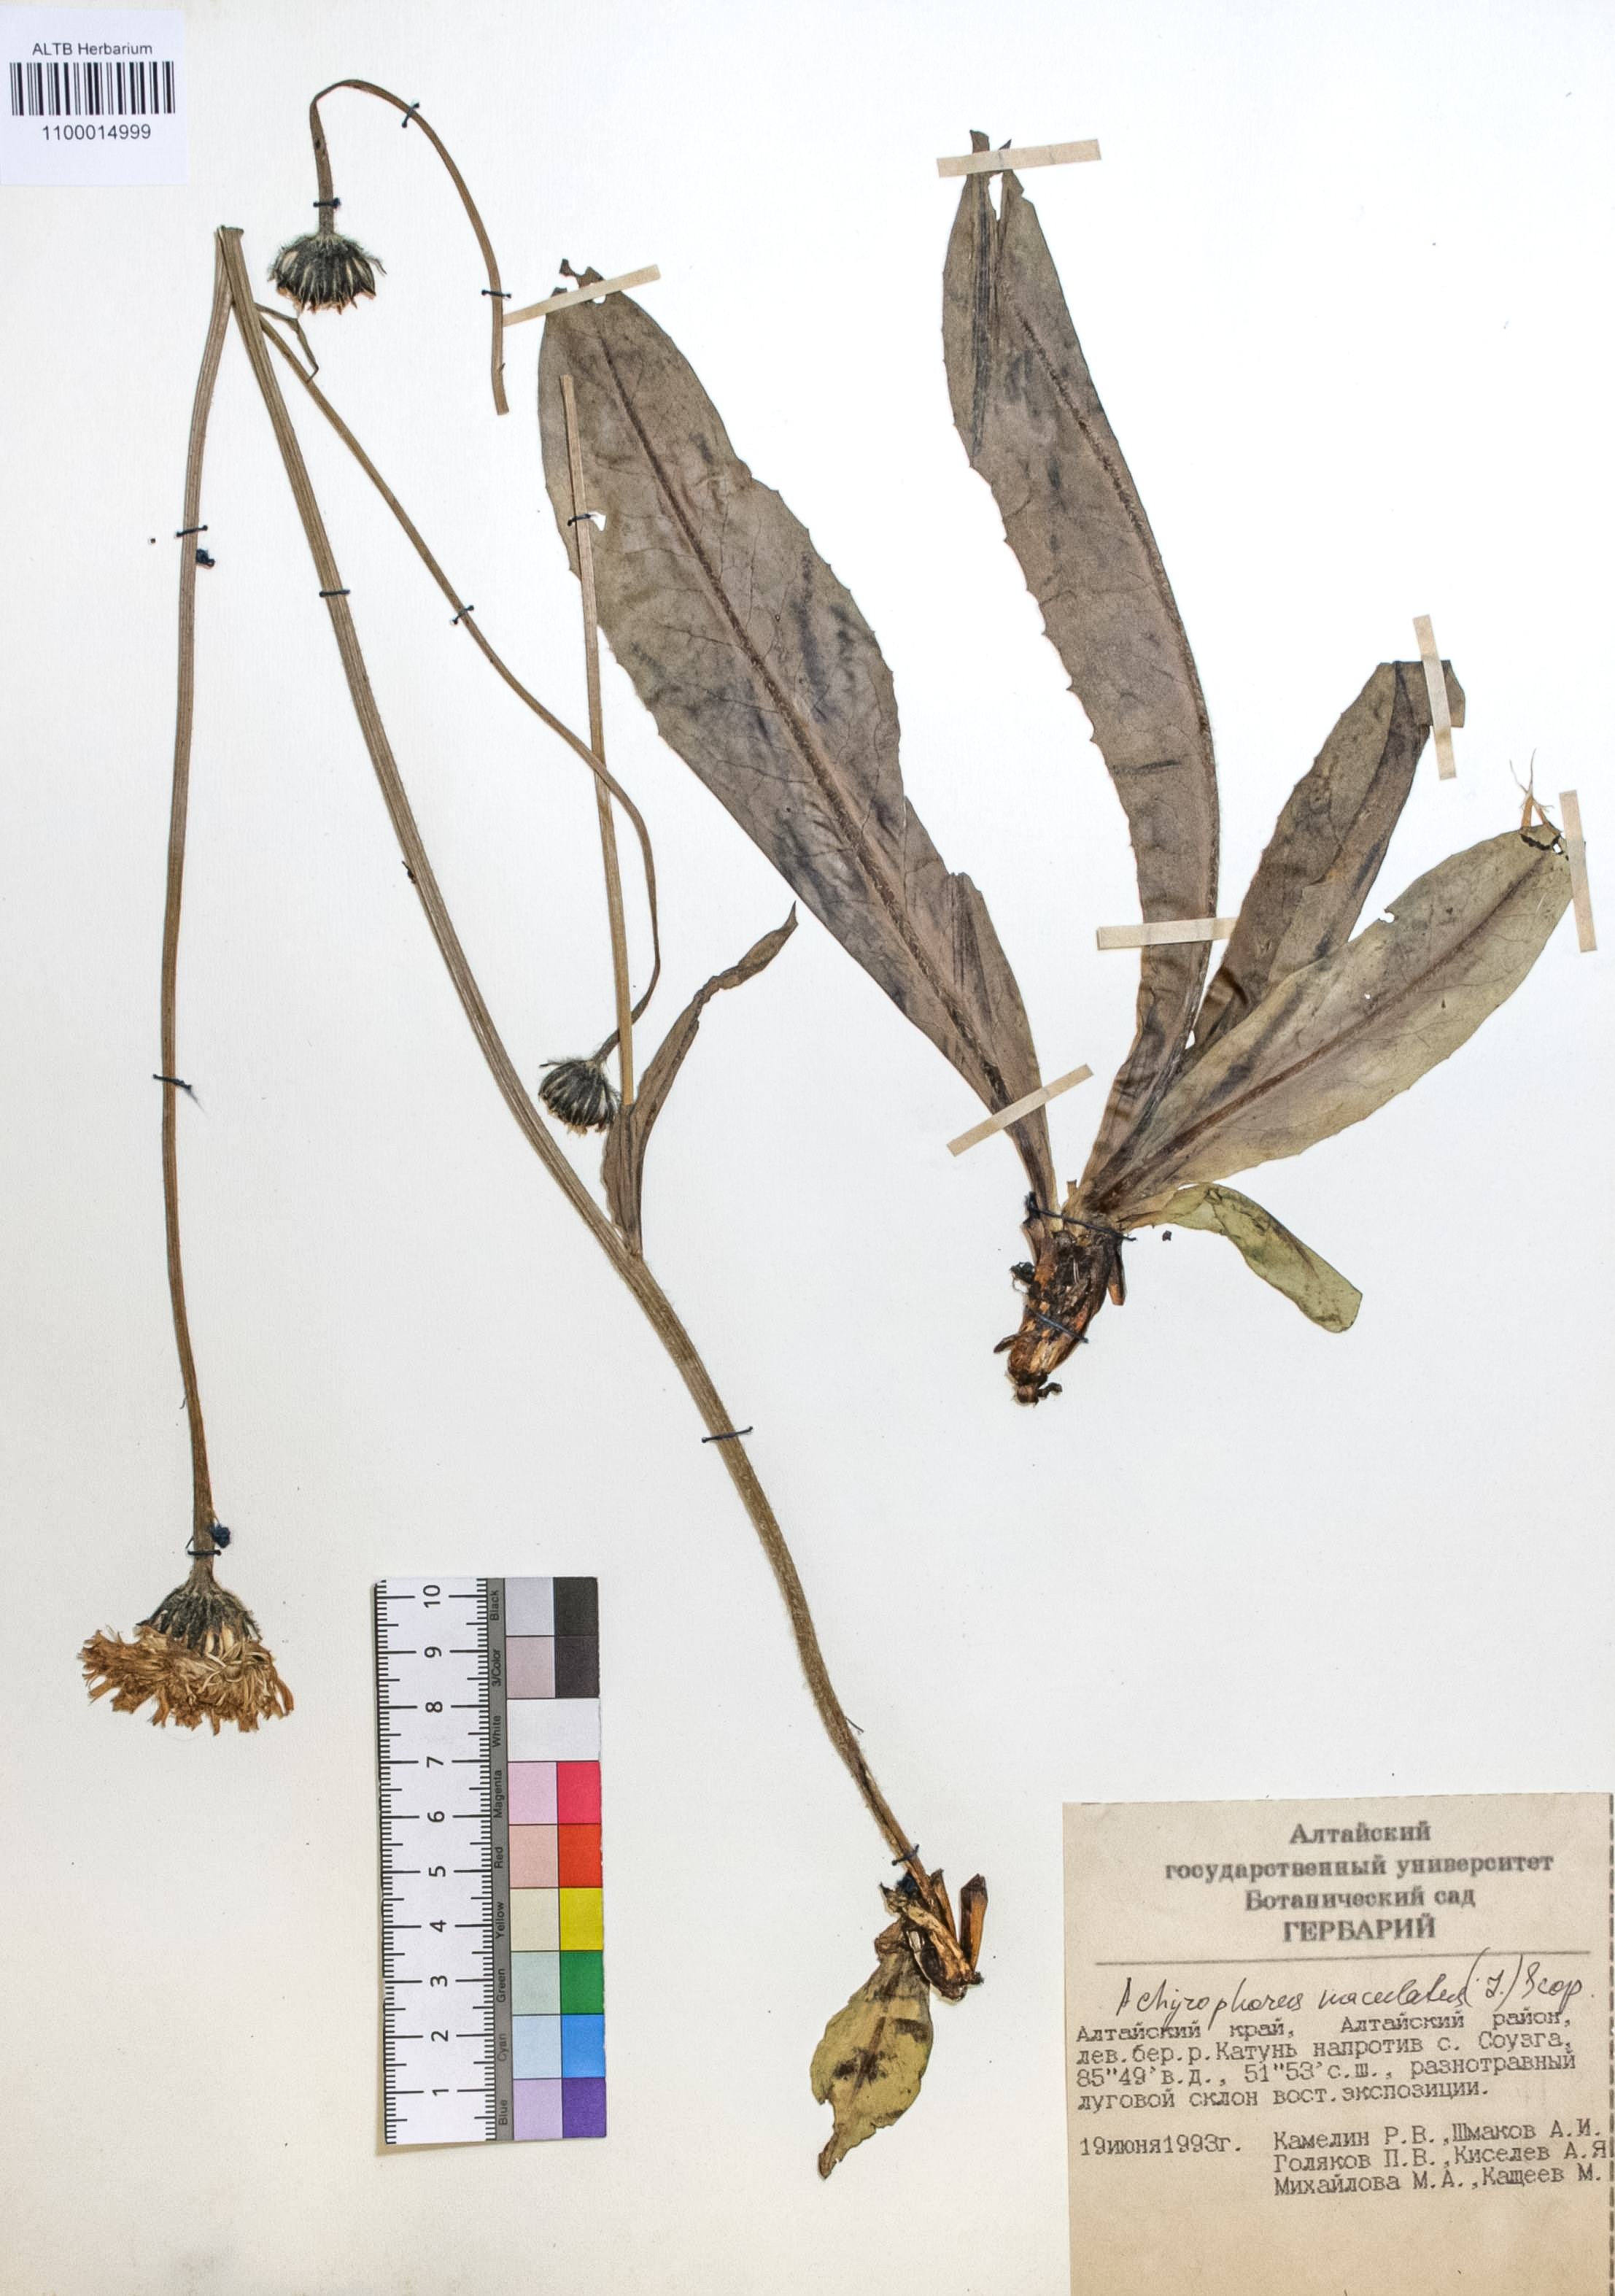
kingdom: Plantae
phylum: Tracheophyta
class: Magnoliopsida
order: Asterales
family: Asteraceae
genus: Trommsdorffia
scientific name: Trommsdorffia maculata
